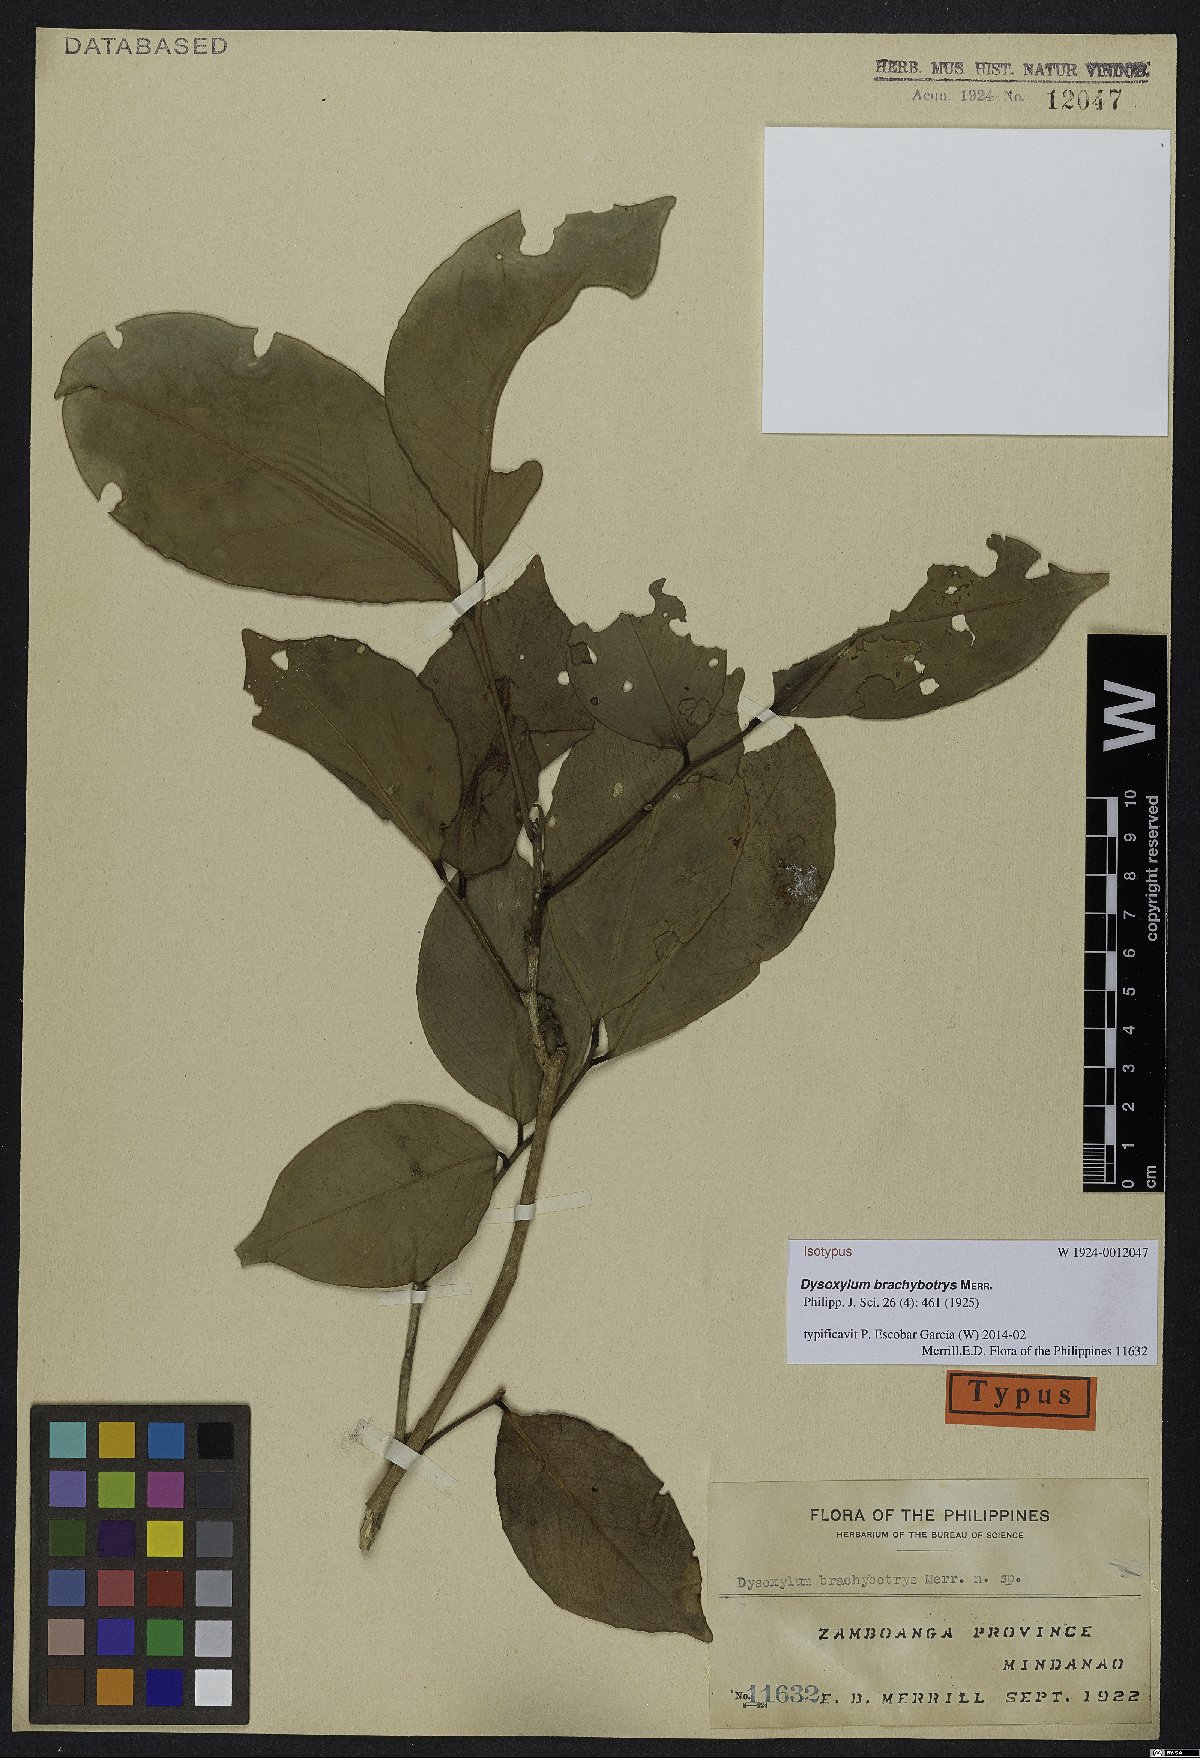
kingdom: Plantae
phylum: Tracheophyta
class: Magnoliopsida
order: Sapindales
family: Meliaceae
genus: Dysoxylum
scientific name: Dysoxylum brachybotrys
